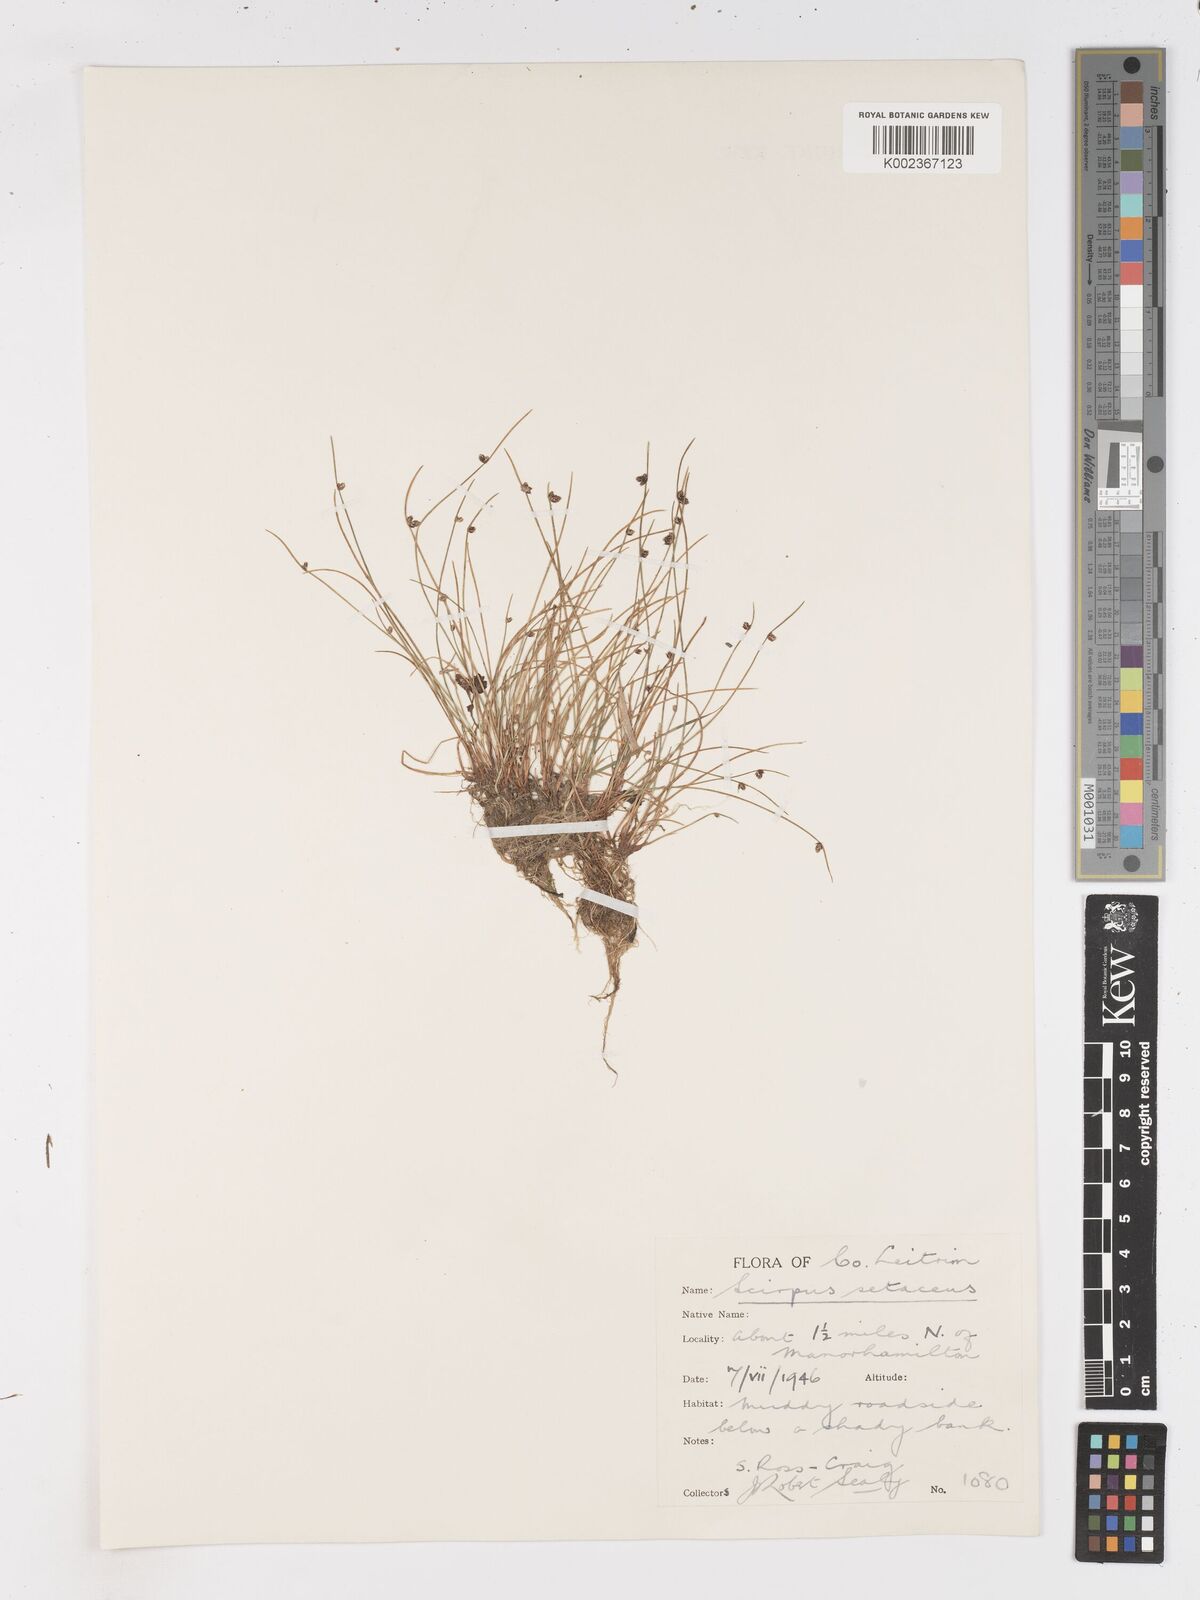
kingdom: Plantae
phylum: Tracheophyta
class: Liliopsida
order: Poales
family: Cyperaceae
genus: Isolepis
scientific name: Isolepis setacea
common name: Bristle club-rush
